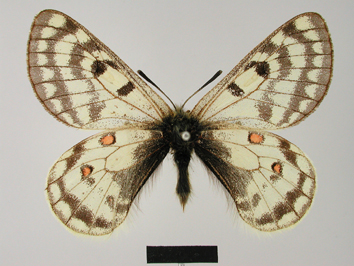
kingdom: Animalia
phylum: Arthropoda
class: Insecta
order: Lepidoptera
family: Papilionidae
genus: Parnassius
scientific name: Parnassius simonius
